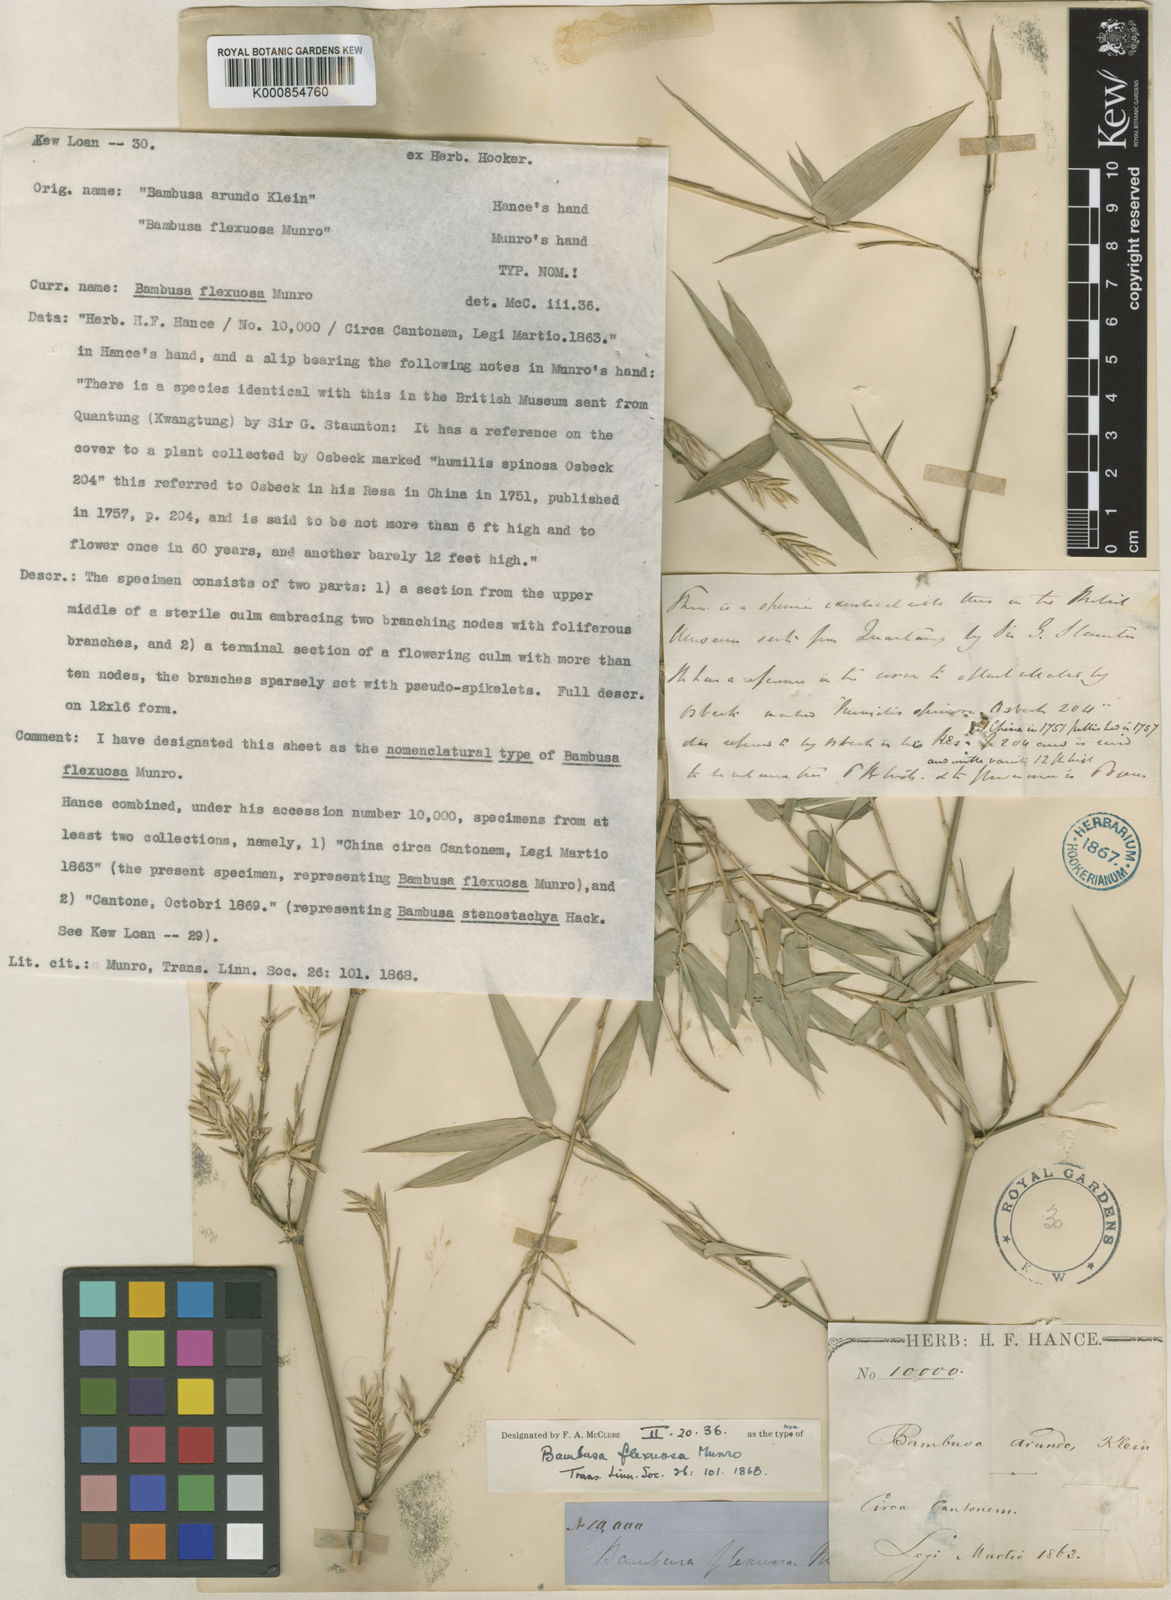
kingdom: Plantae
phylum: Tracheophyta
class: Liliopsida
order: Poales
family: Poaceae
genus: Bambusa
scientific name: Bambusa flexuosa
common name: Lesser thorny bamboo
